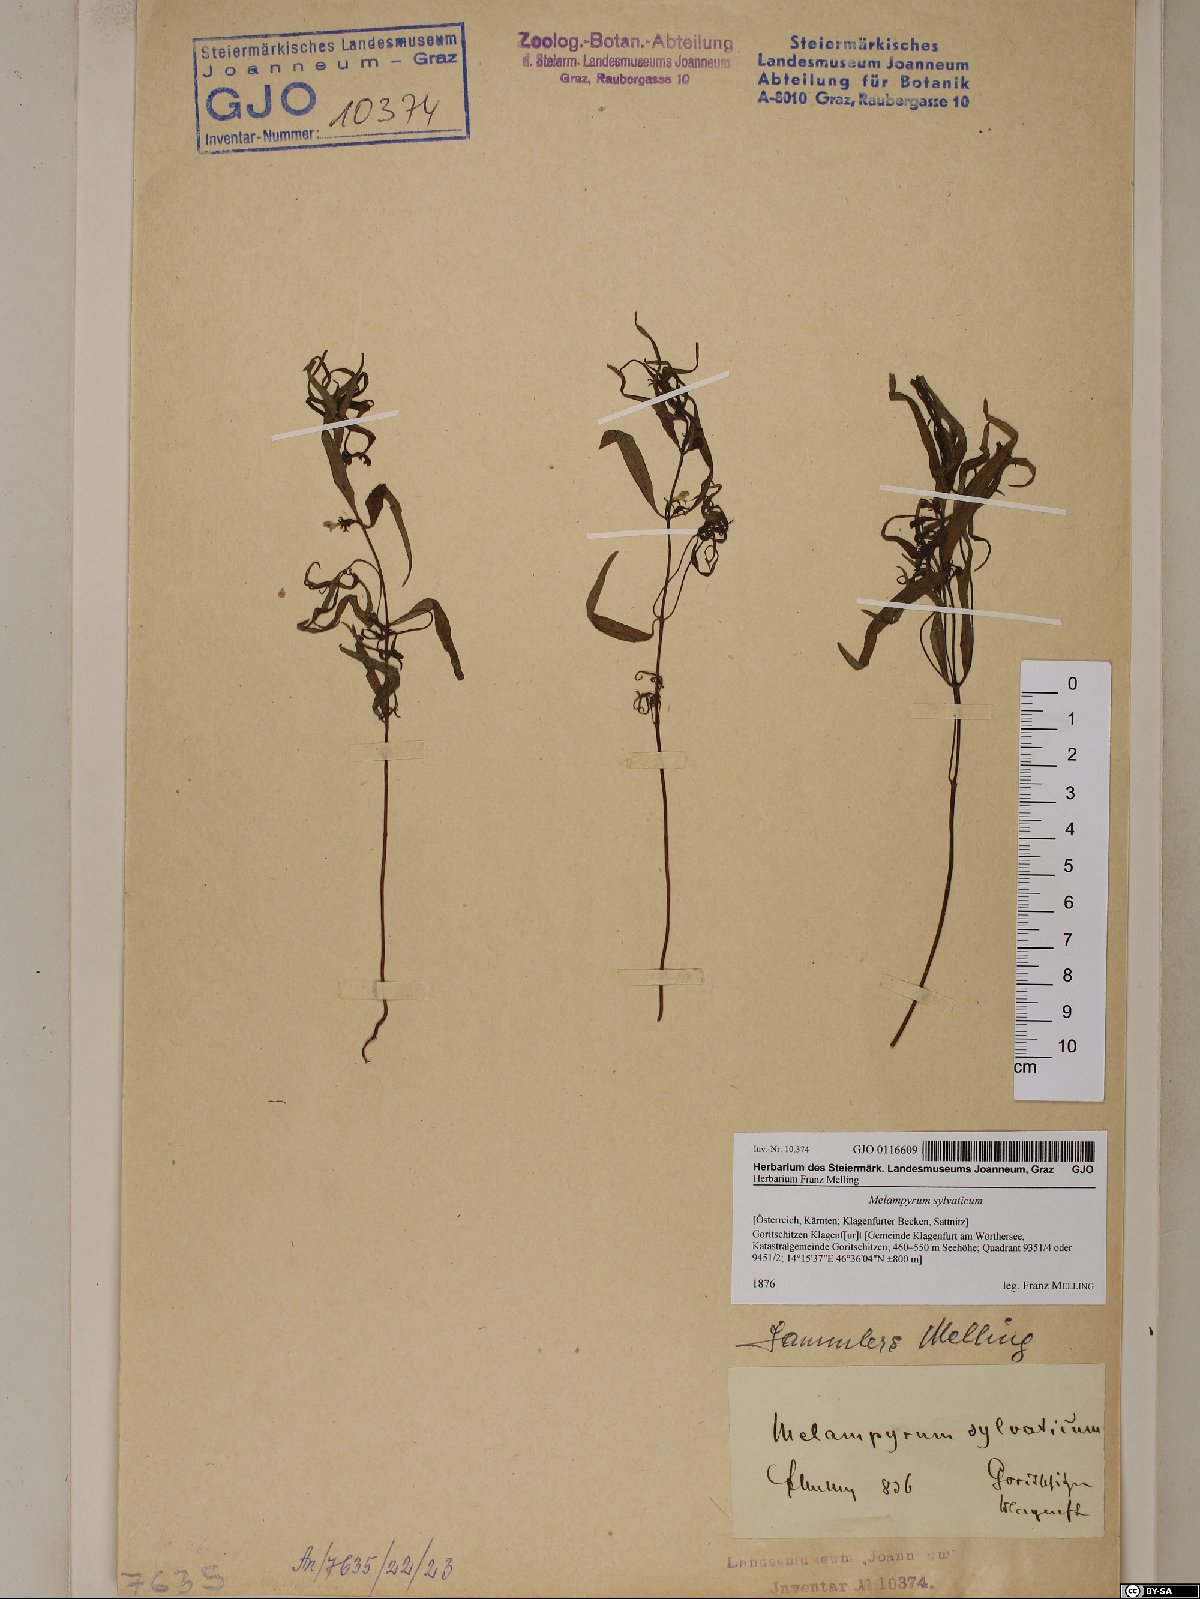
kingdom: Plantae
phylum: Tracheophyta
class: Magnoliopsida
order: Lamiales
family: Orobanchaceae
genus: Melampyrum
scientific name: Melampyrum sylvaticum
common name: Small cow-wheat
